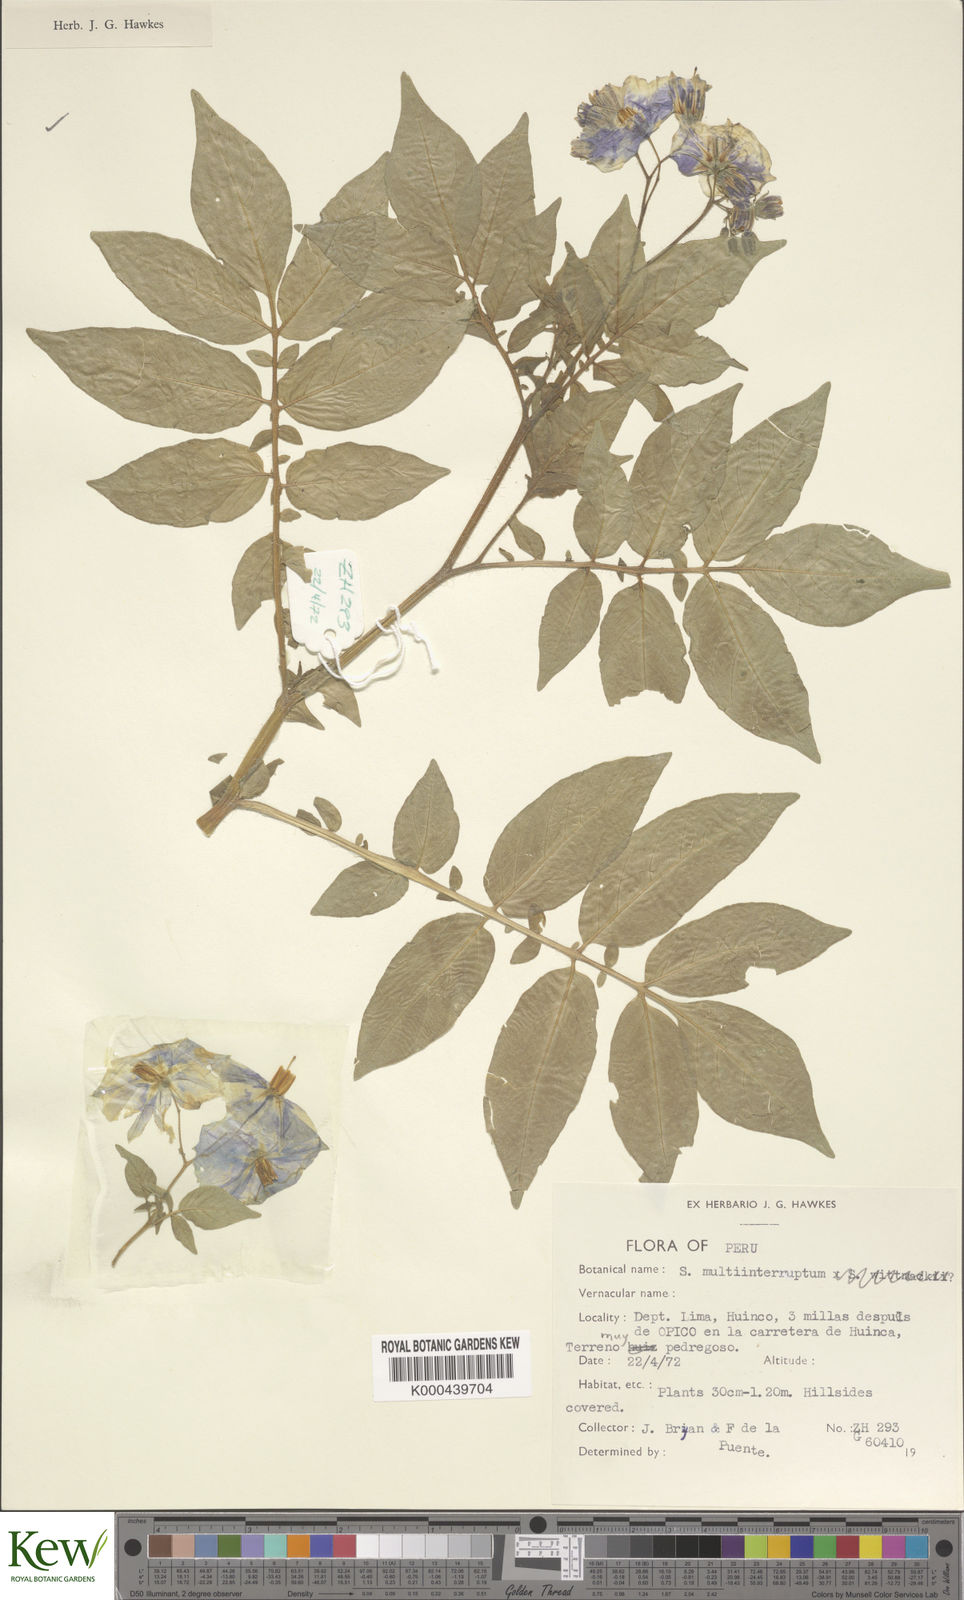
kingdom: Plantae
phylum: Tracheophyta
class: Magnoliopsida
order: Solanales
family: Solanaceae
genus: Solanum
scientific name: Solanum multiinterruptum
